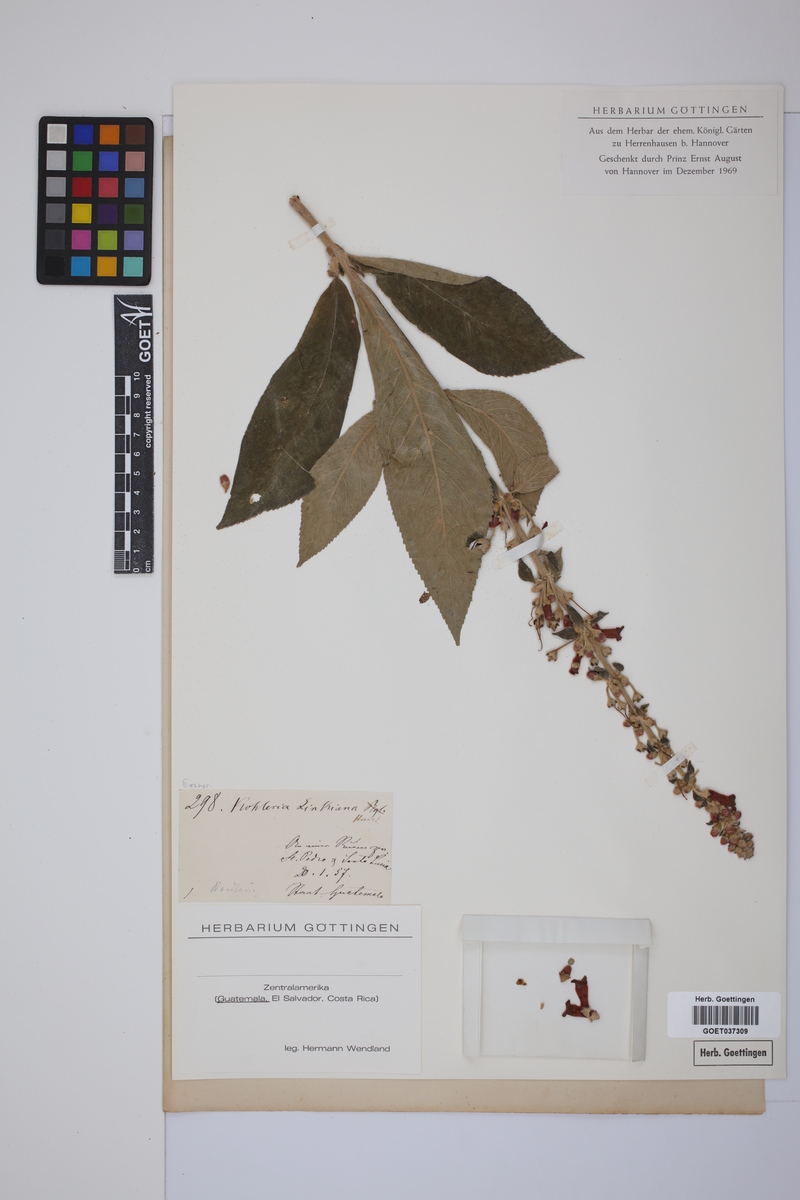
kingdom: Plantae
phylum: Tracheophyta
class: Magnoliopsida
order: Lamiales
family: Gesneriaceae
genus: Kohleria
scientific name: Kohleria spicata
